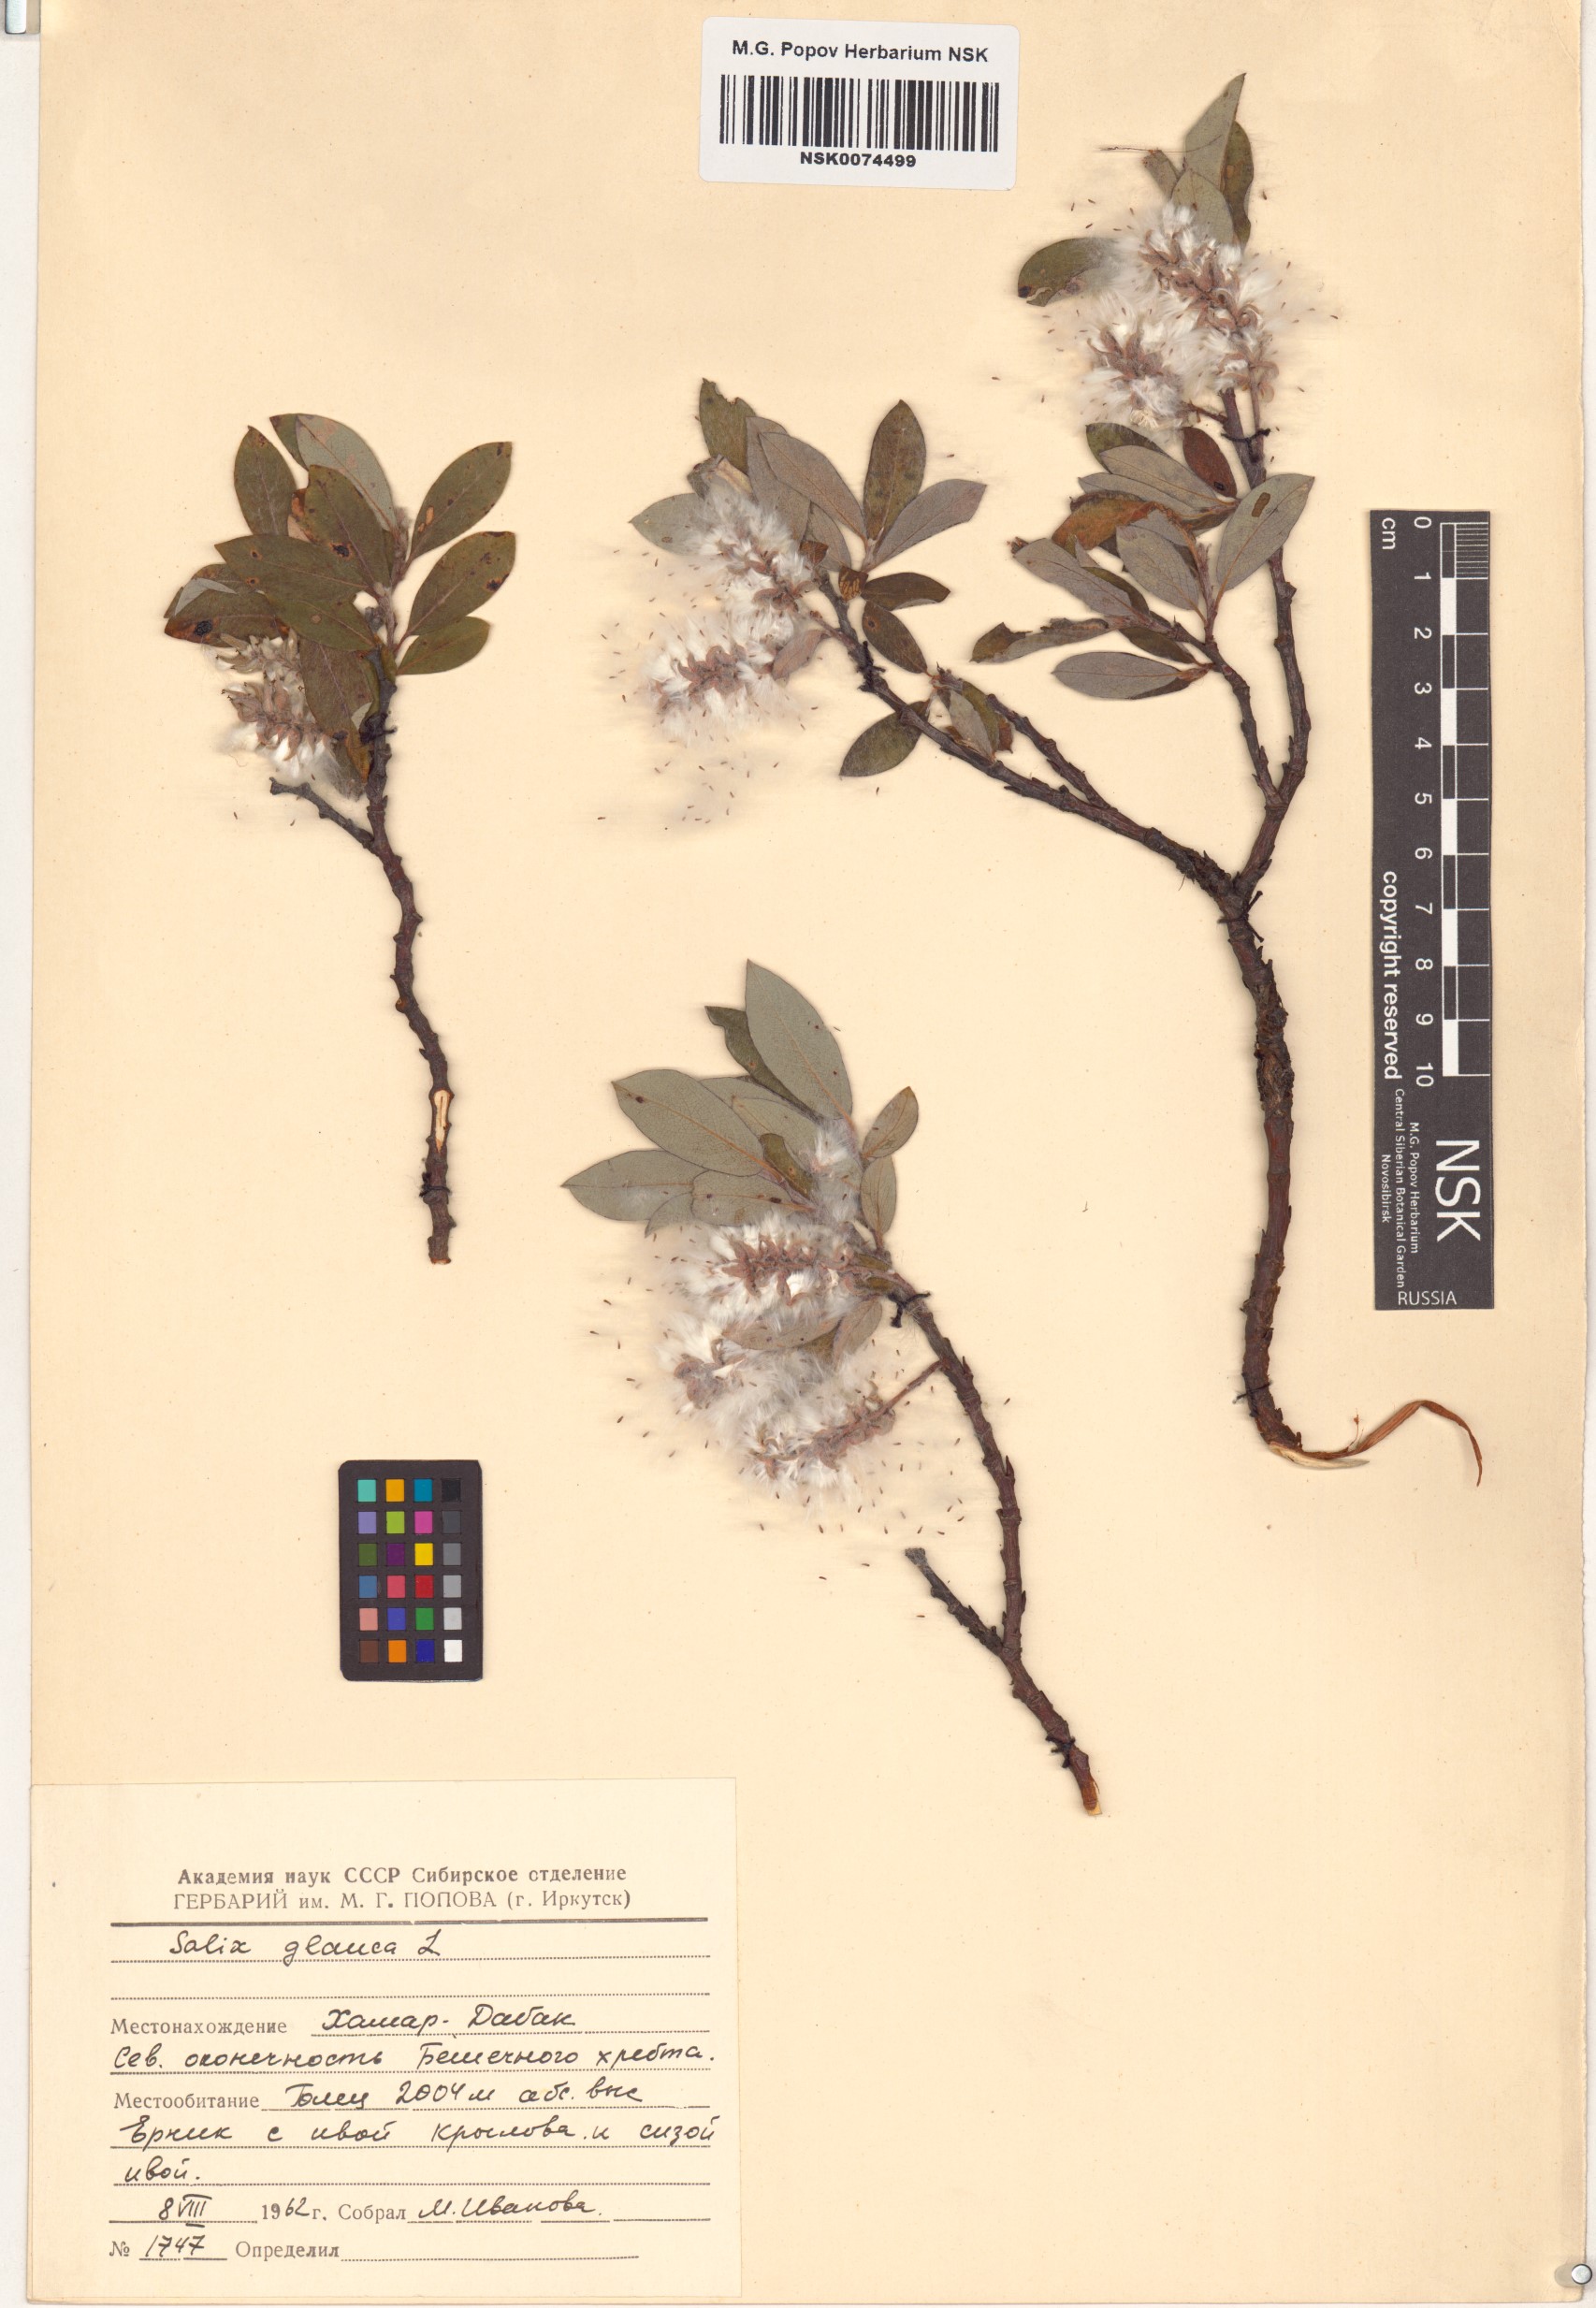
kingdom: Plantae
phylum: Tracheophyta
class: Magnoliopsida
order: Malpighiales
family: Salicaceae
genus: Salix
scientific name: Salix glauca
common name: Glaucous willow
